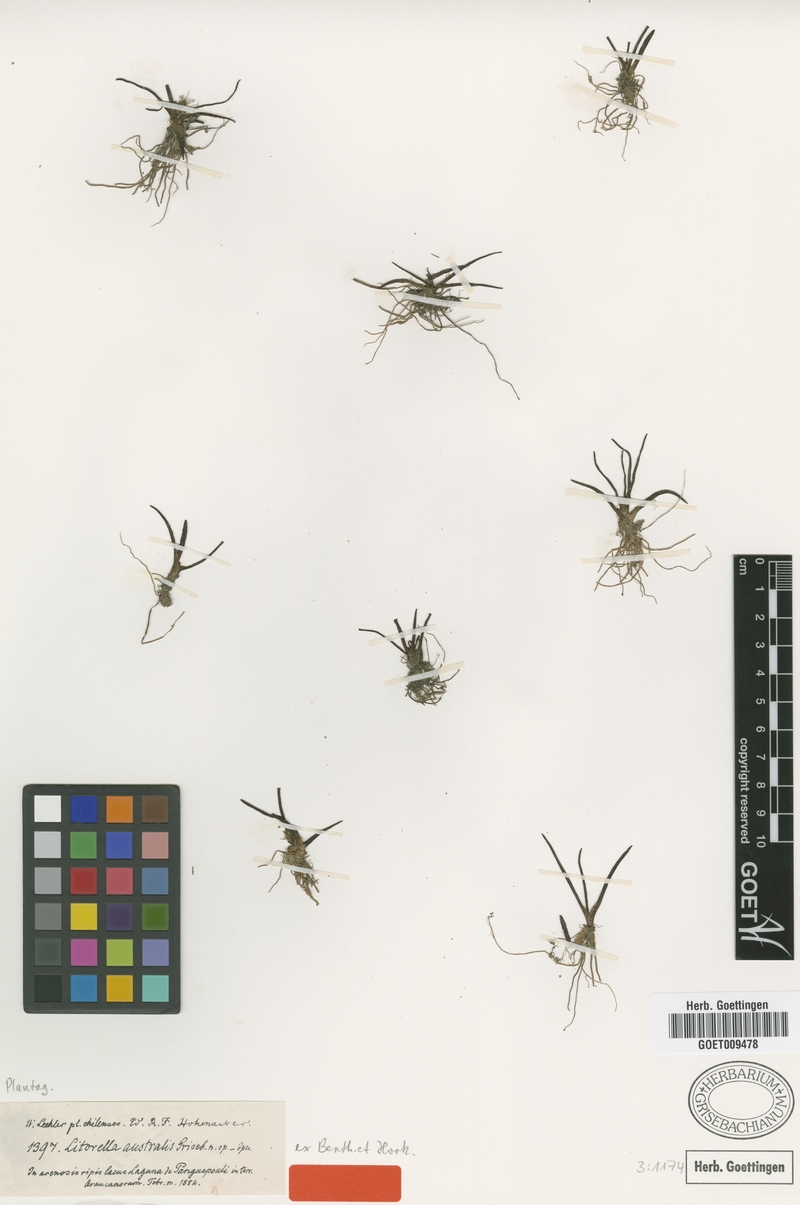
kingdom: Plantae
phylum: Tracheophyta
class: Magnoliopsida
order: Lamiales
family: Plantaginaceae
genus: Littorella
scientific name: Littorella australis
